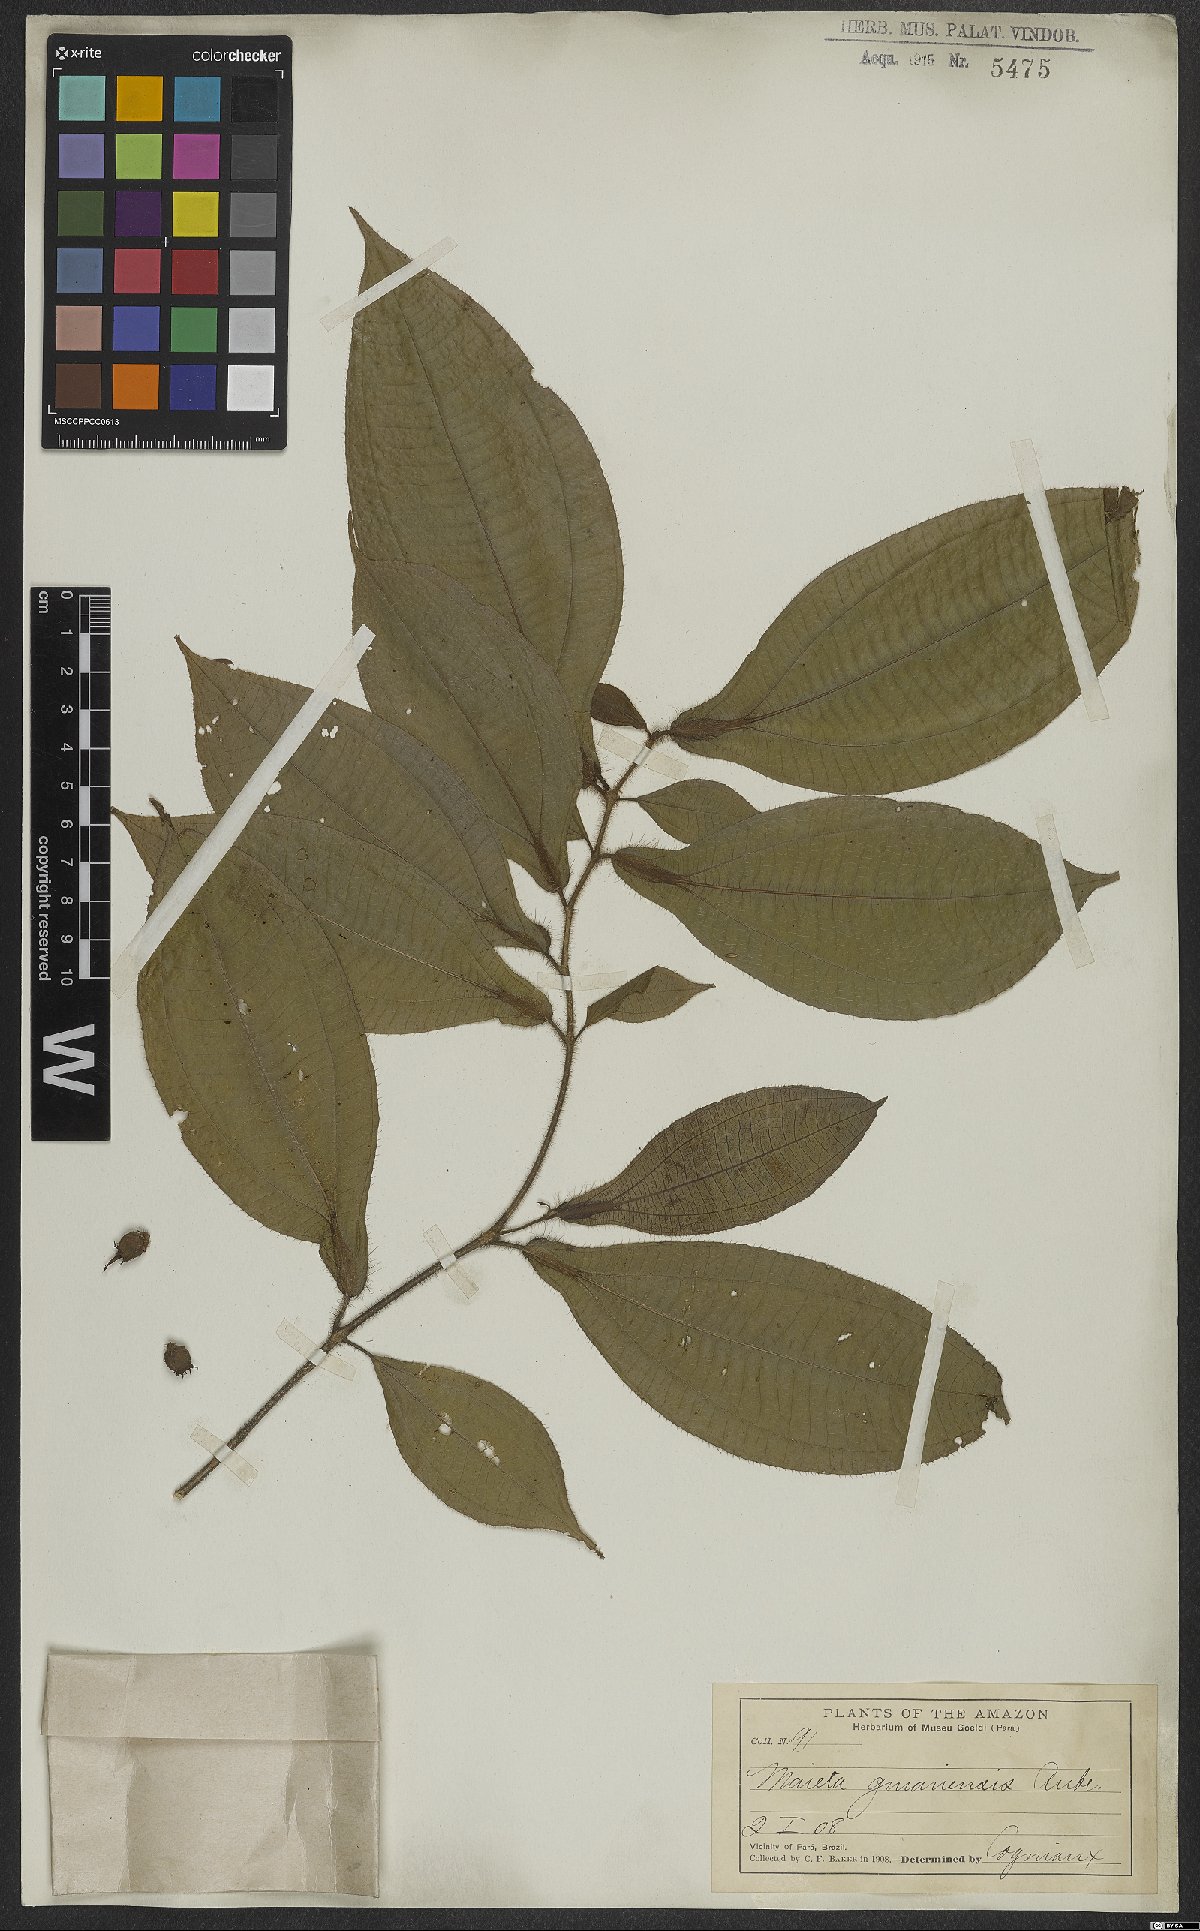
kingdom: Plantae
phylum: Tracheophyta
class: Magnoliopsida
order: Myrtales
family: Melastomataceae
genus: Miconia
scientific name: Miconia mayeta
